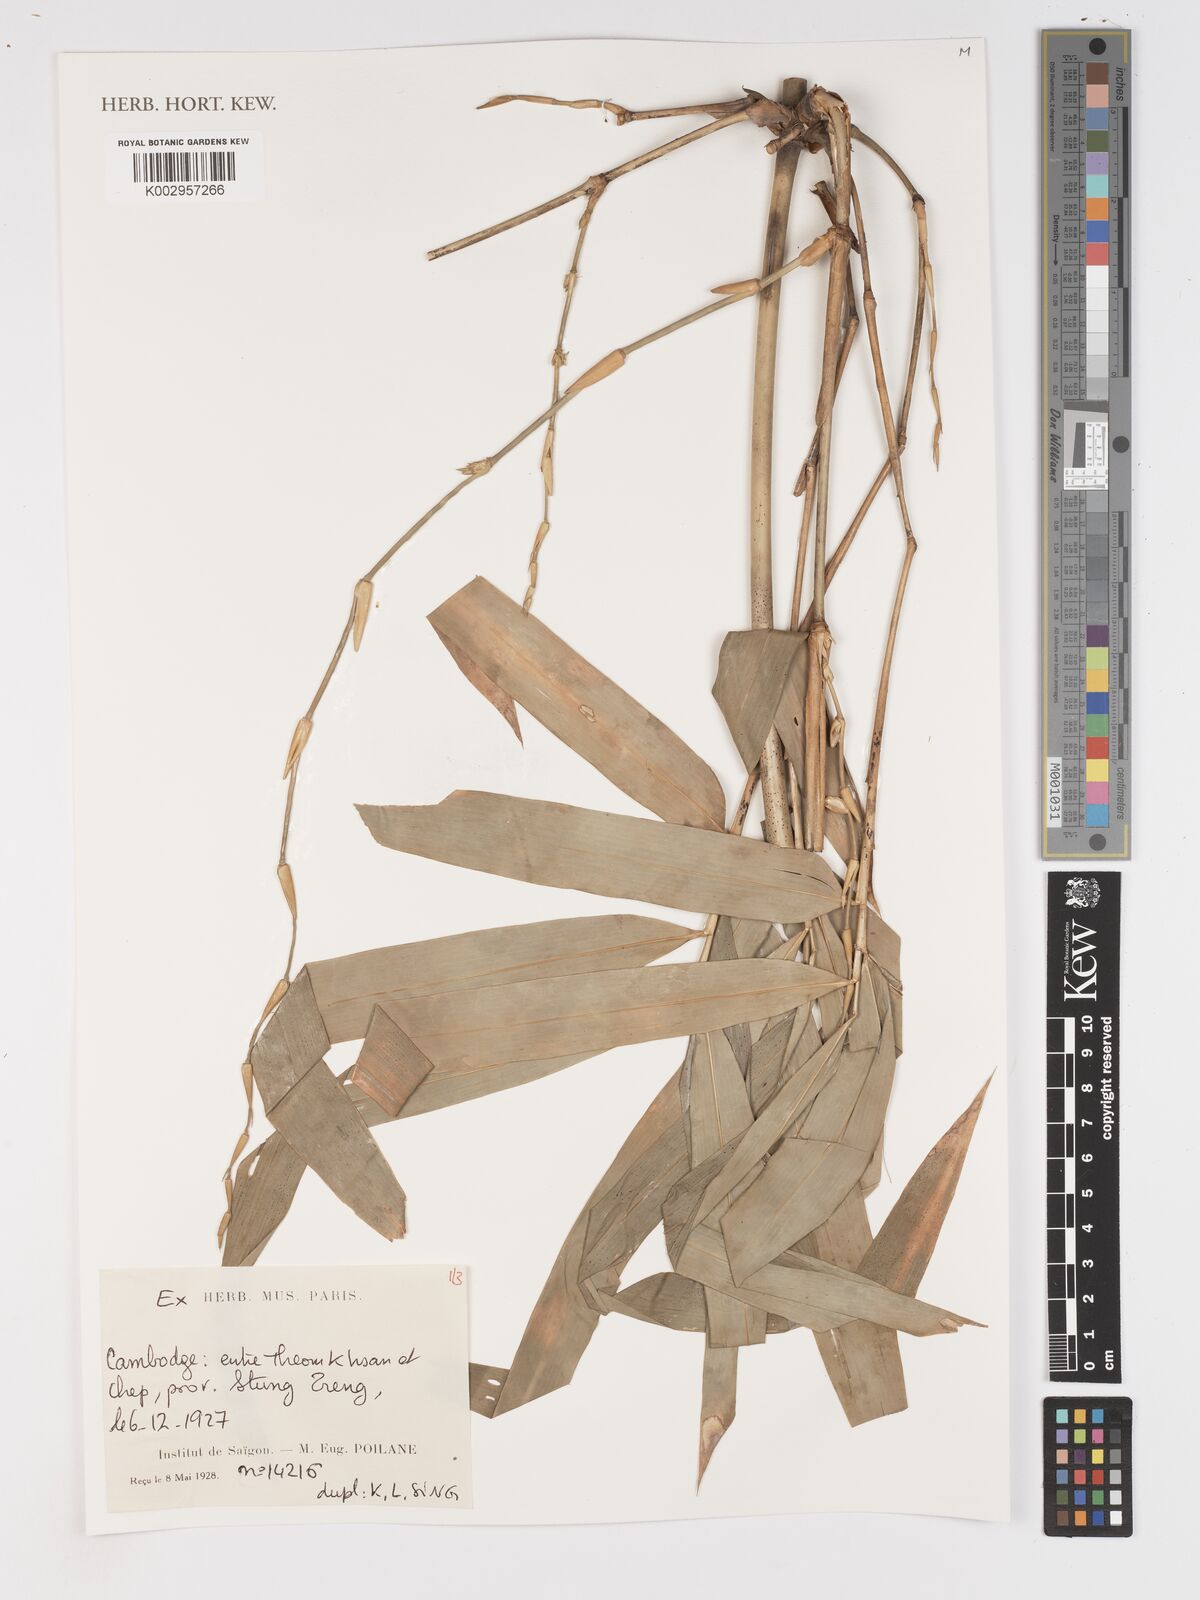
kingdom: Plantae
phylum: Tracheophyta
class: Liliopsida
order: Poales
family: Poaceae
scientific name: Poaceae
